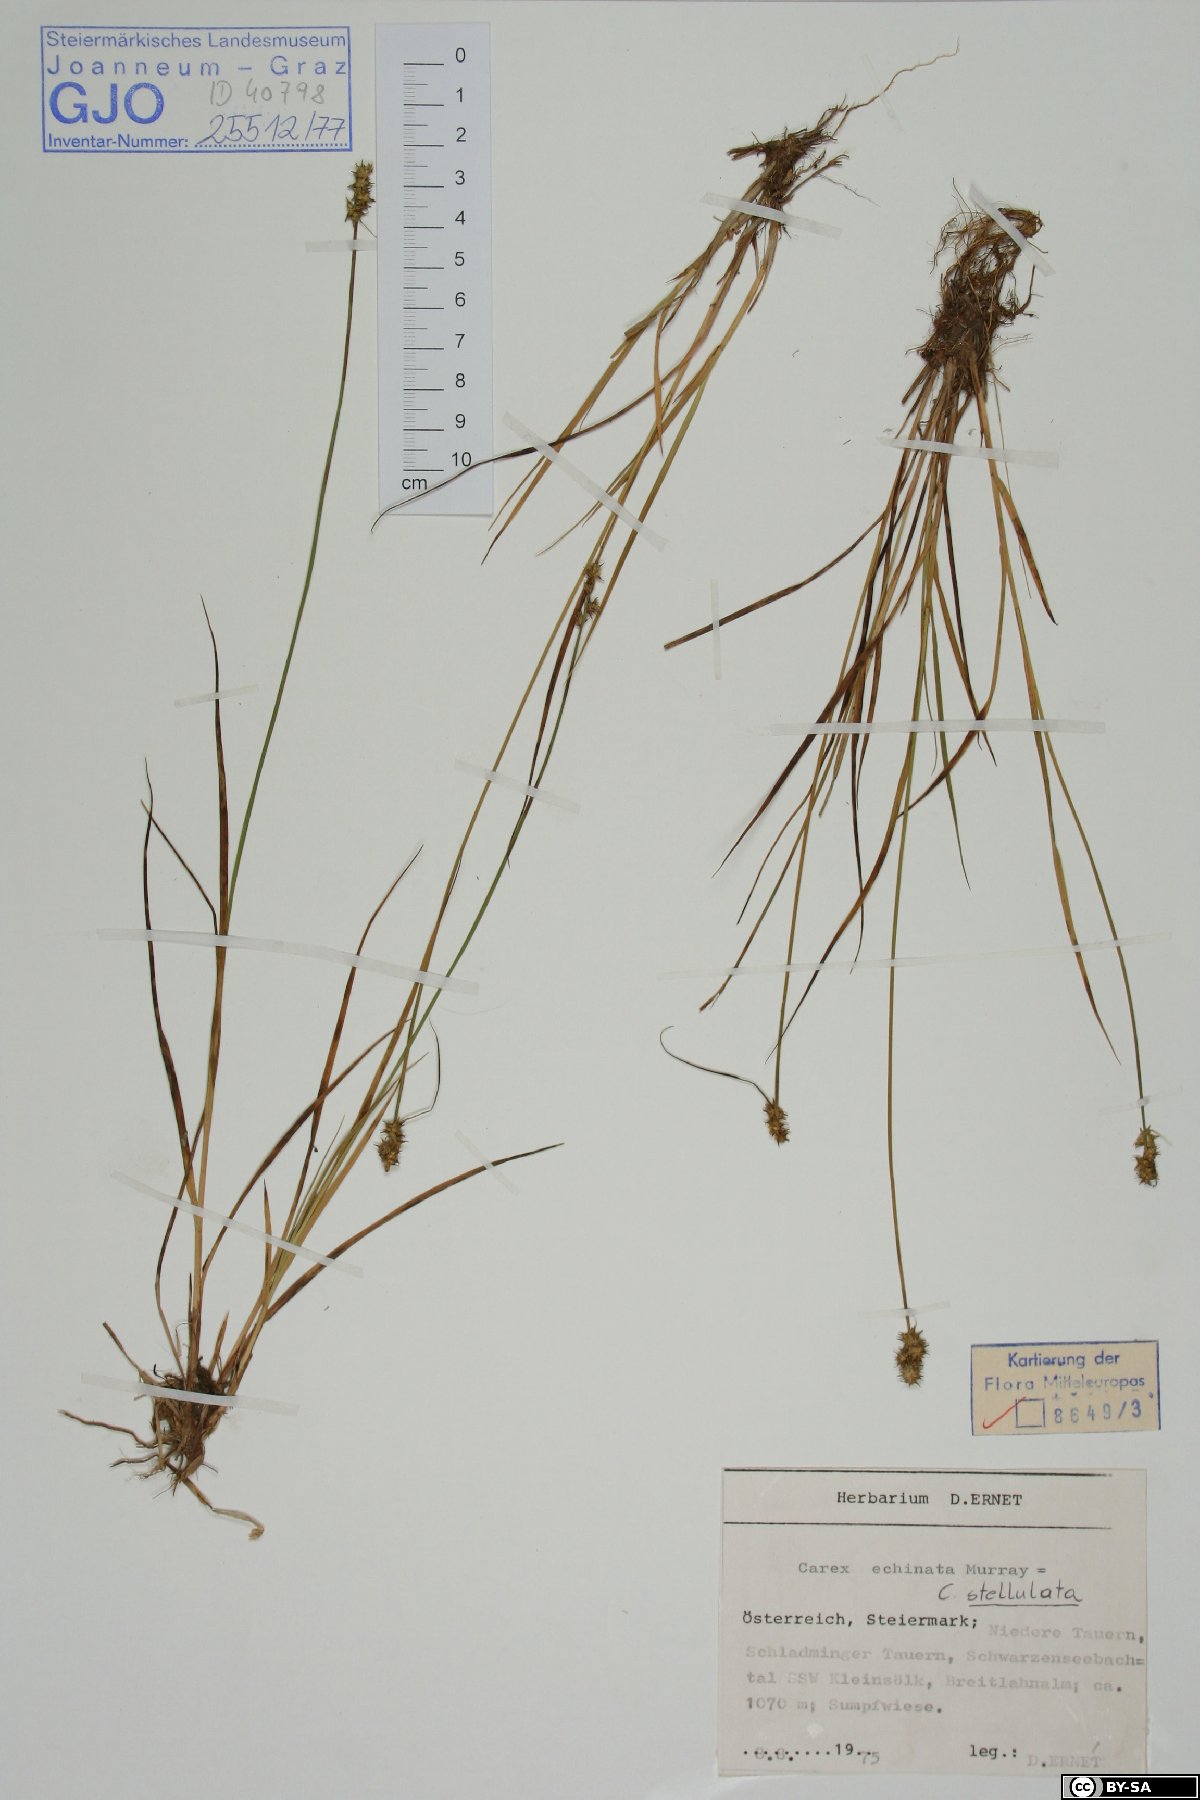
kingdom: Plantae
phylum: Tracheophyta
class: Liliopsida
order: Poales
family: Cyperaceae
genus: Carex
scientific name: Carex echinata
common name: Star sedge
